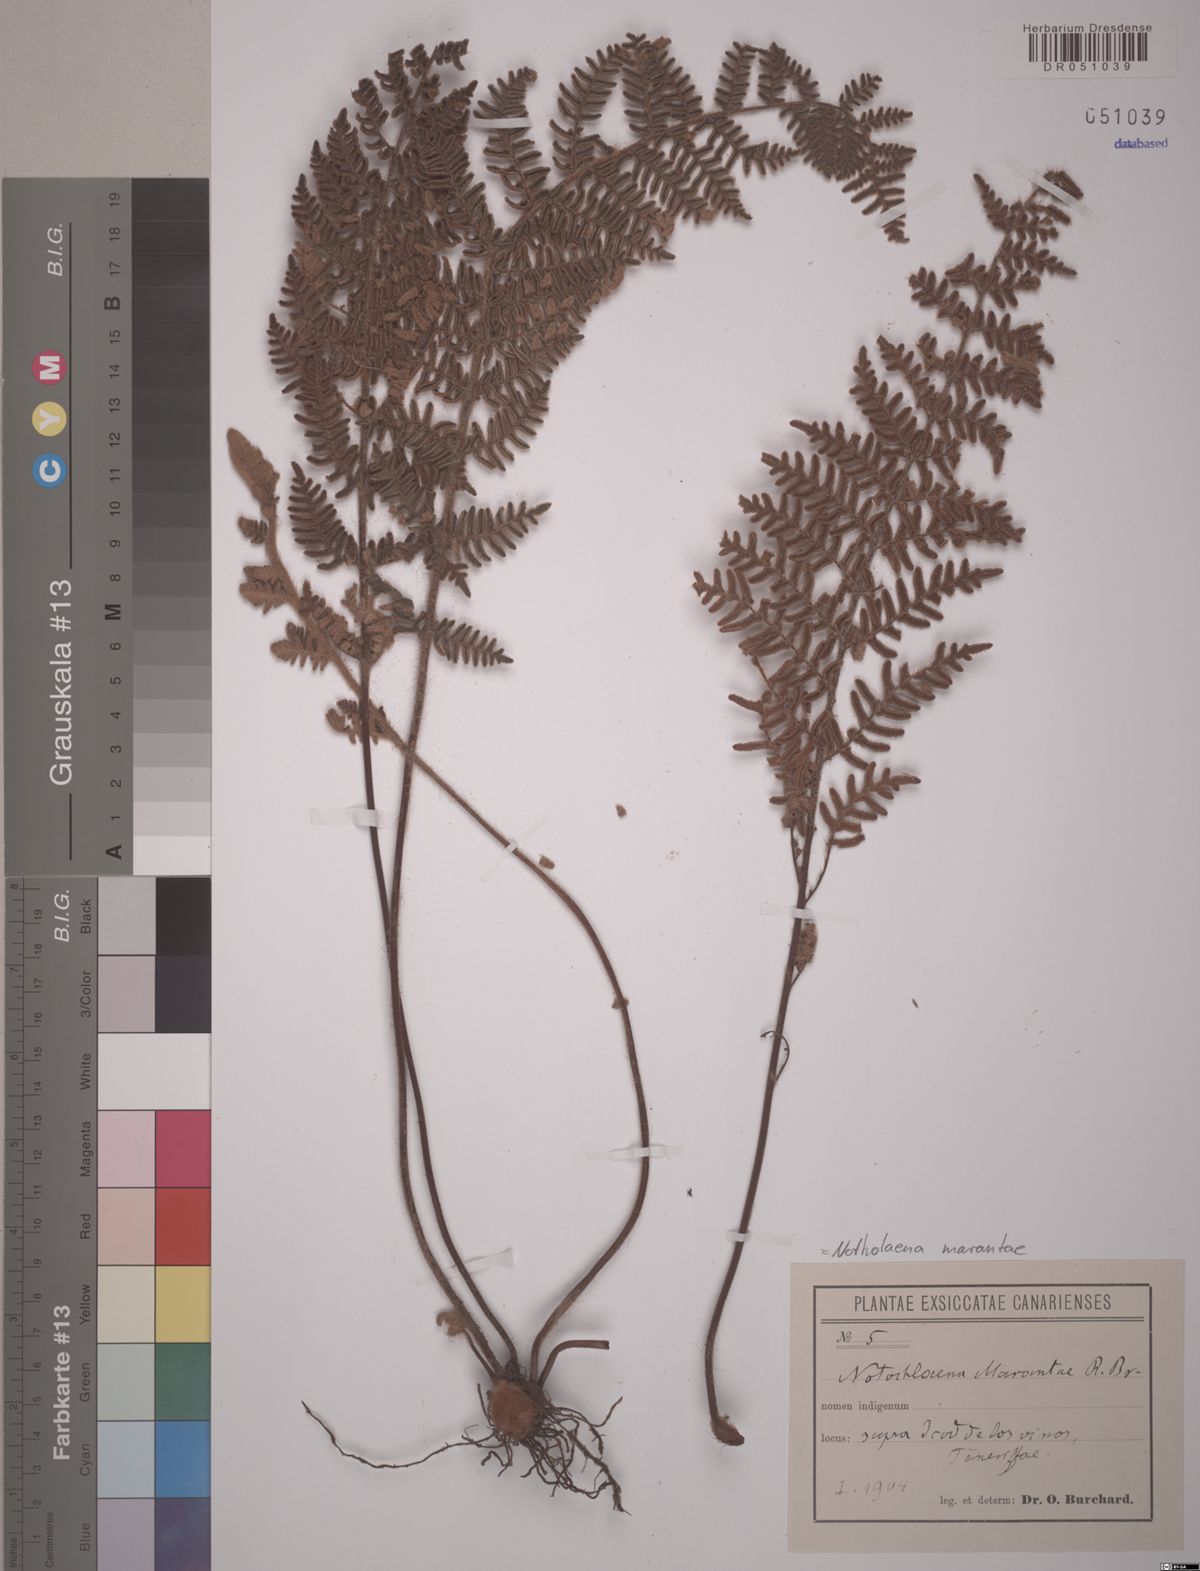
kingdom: Plantae
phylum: Tracheophyta
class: Polypodiopsida
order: Polypodiales
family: Pteridaceae
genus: Paragymnopteris
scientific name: Paragymnopteris marantae
